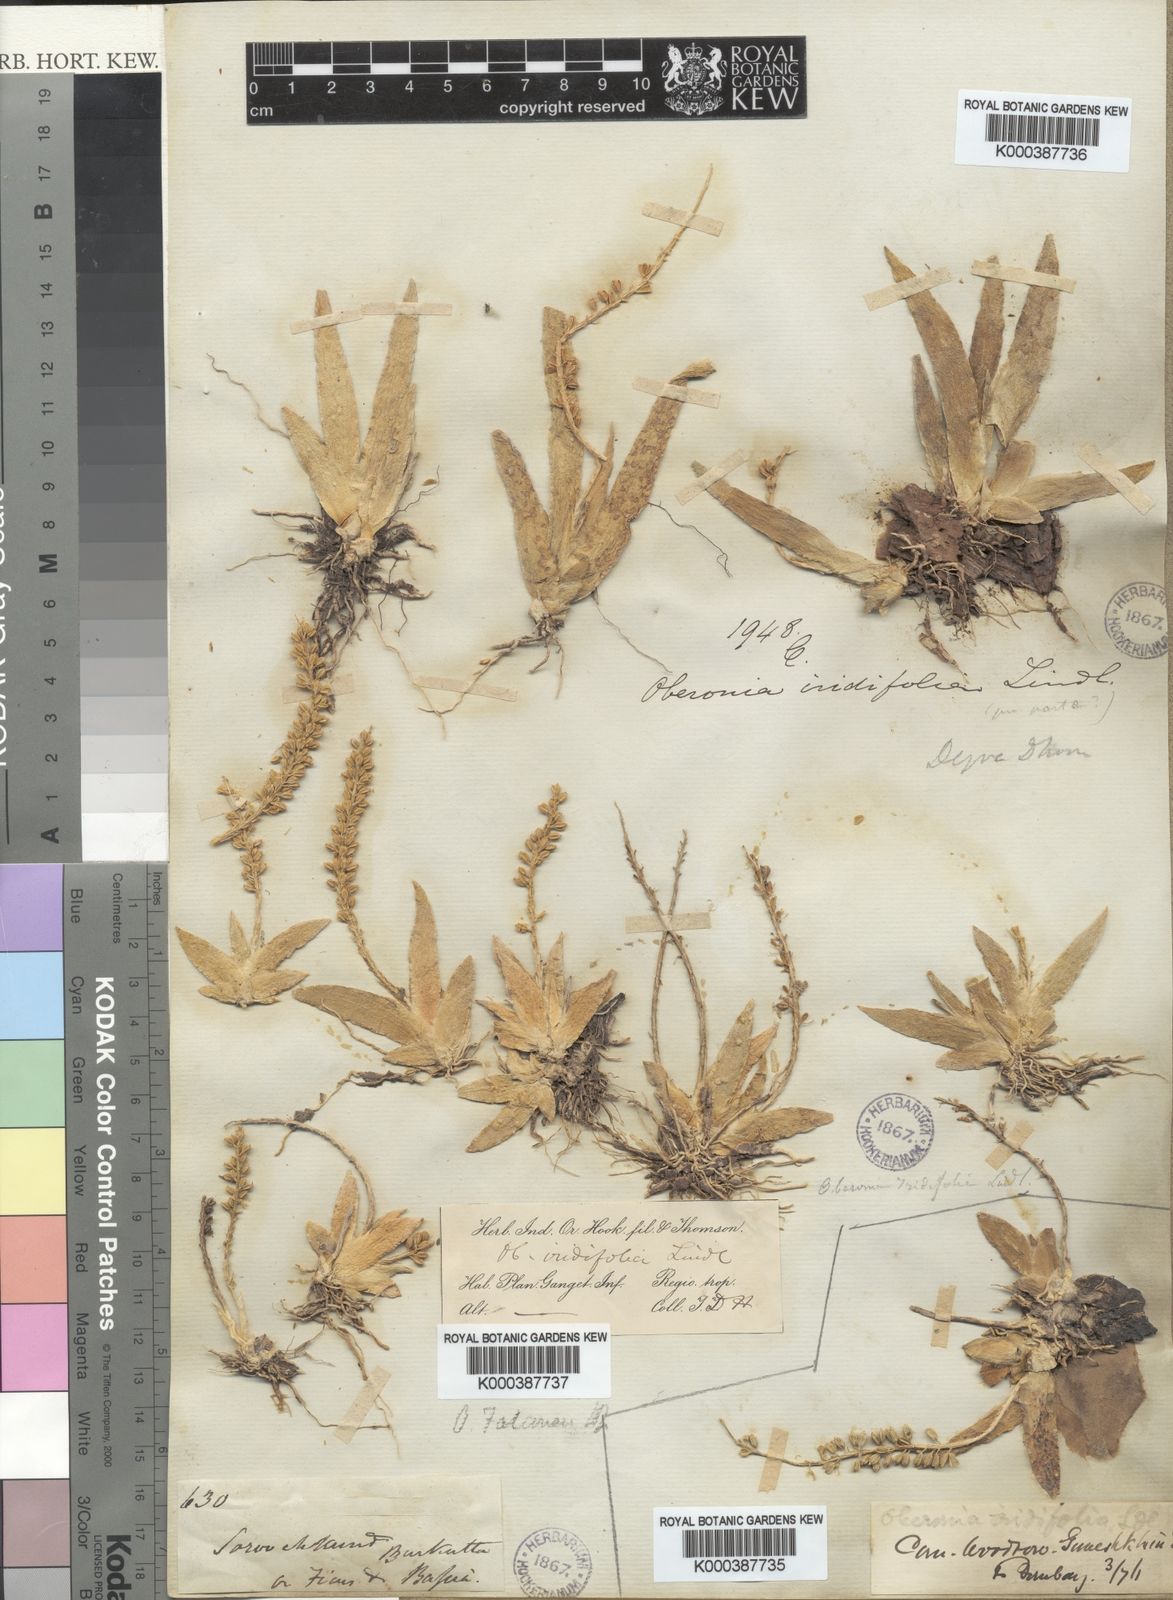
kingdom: Plantae
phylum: Tracheophyta
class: Liliopsida
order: Asparagales
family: Orchidaceae
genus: Oberonia
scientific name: Oberonia falconeri
